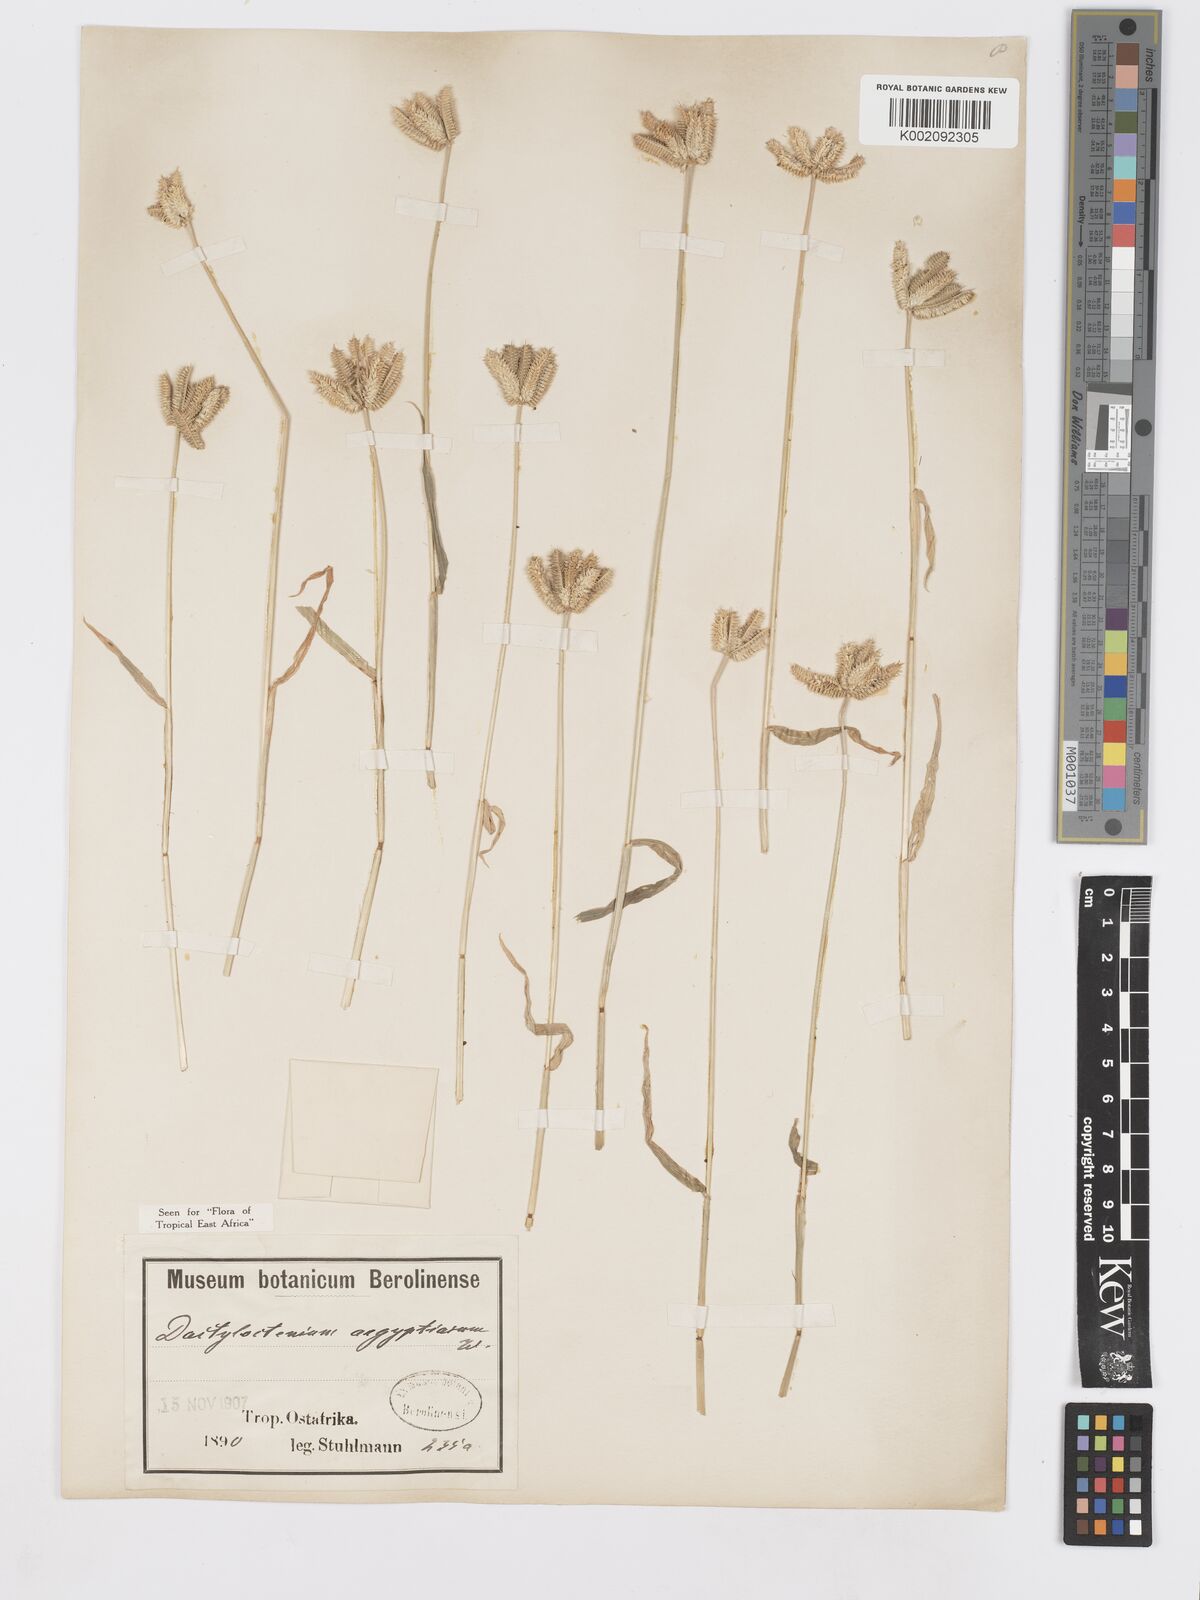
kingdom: Plantae
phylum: Tracheophyta
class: Liliopsida
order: Poales
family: Poaceae
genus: Dactyloctenium
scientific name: Dactyloctenium aegyptium
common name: Egyptian grass
